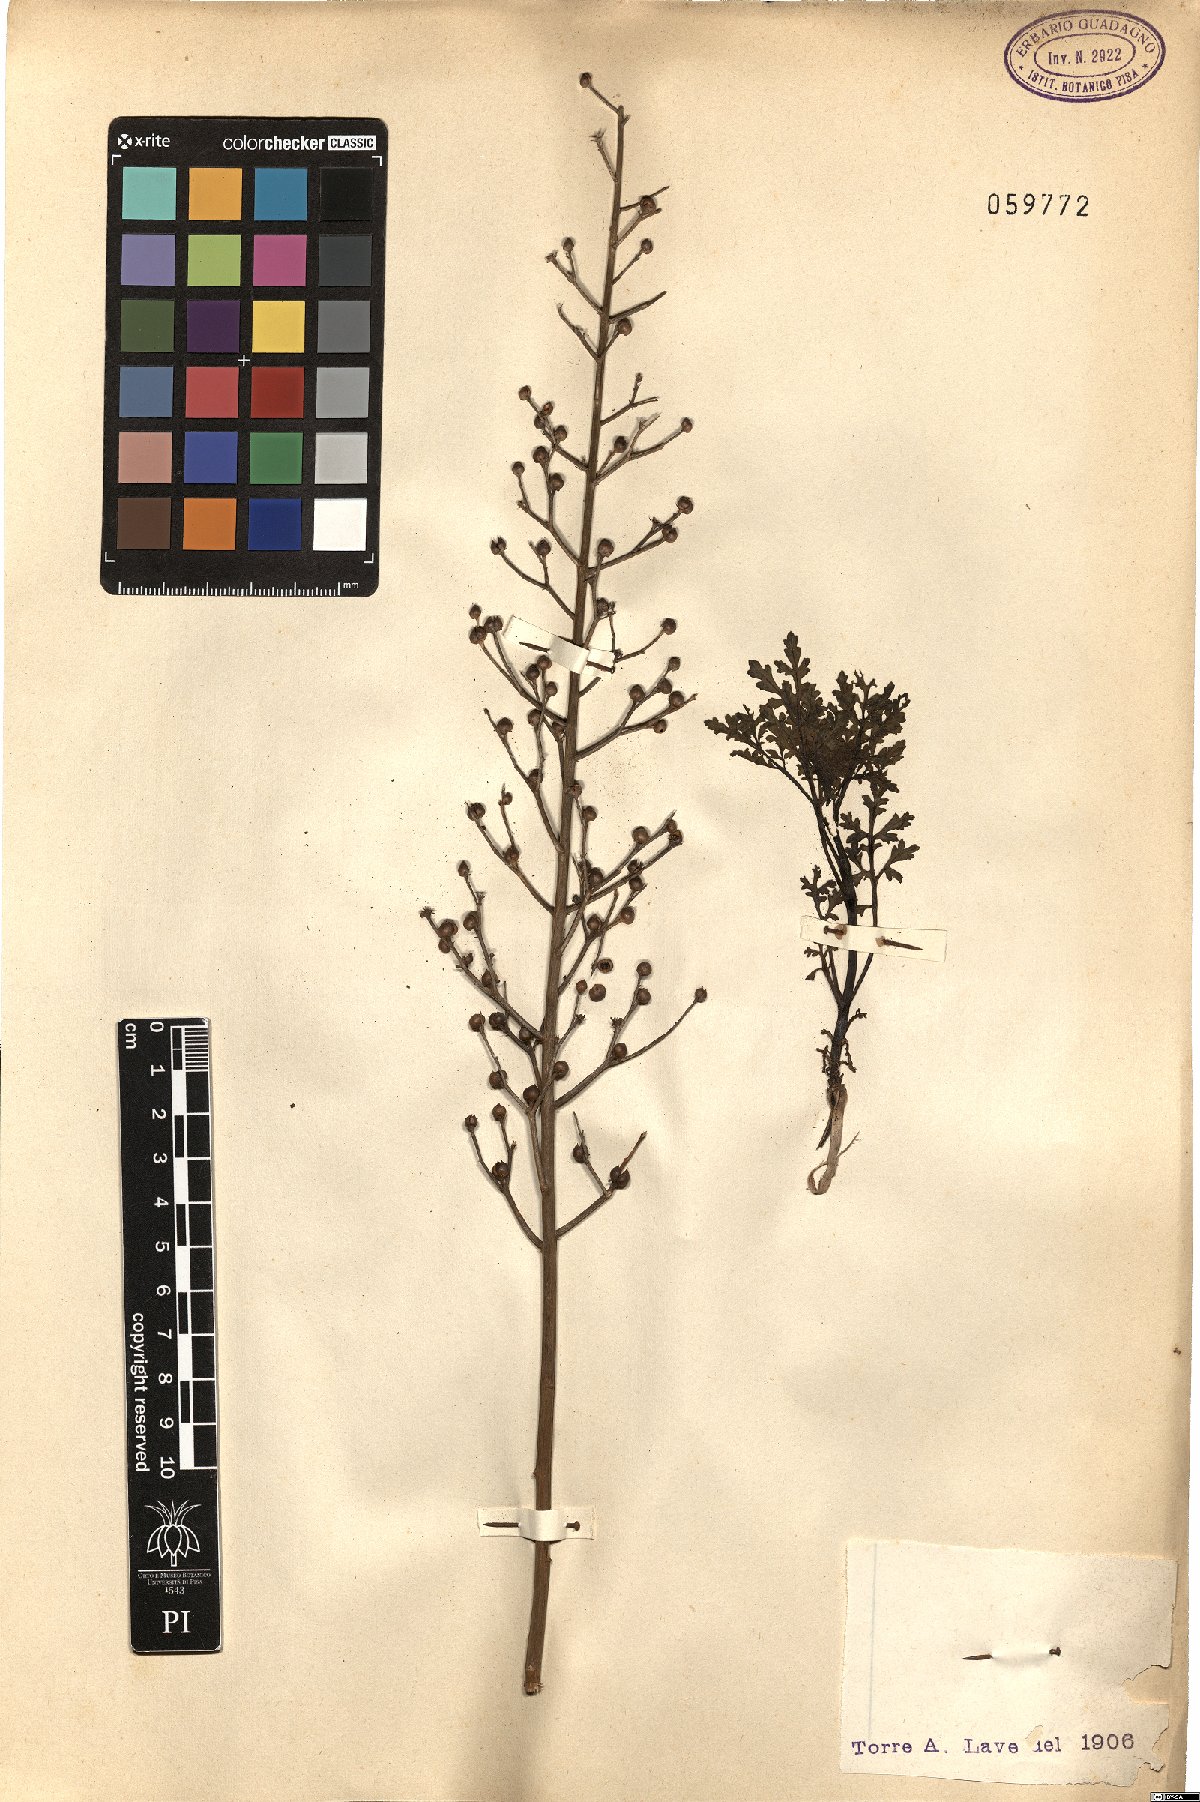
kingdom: Plantae
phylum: Tracheophyta
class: Magnoliopsida
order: Lamiales
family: Scrophulariaceae
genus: Scrophularia
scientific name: Scrophularia
